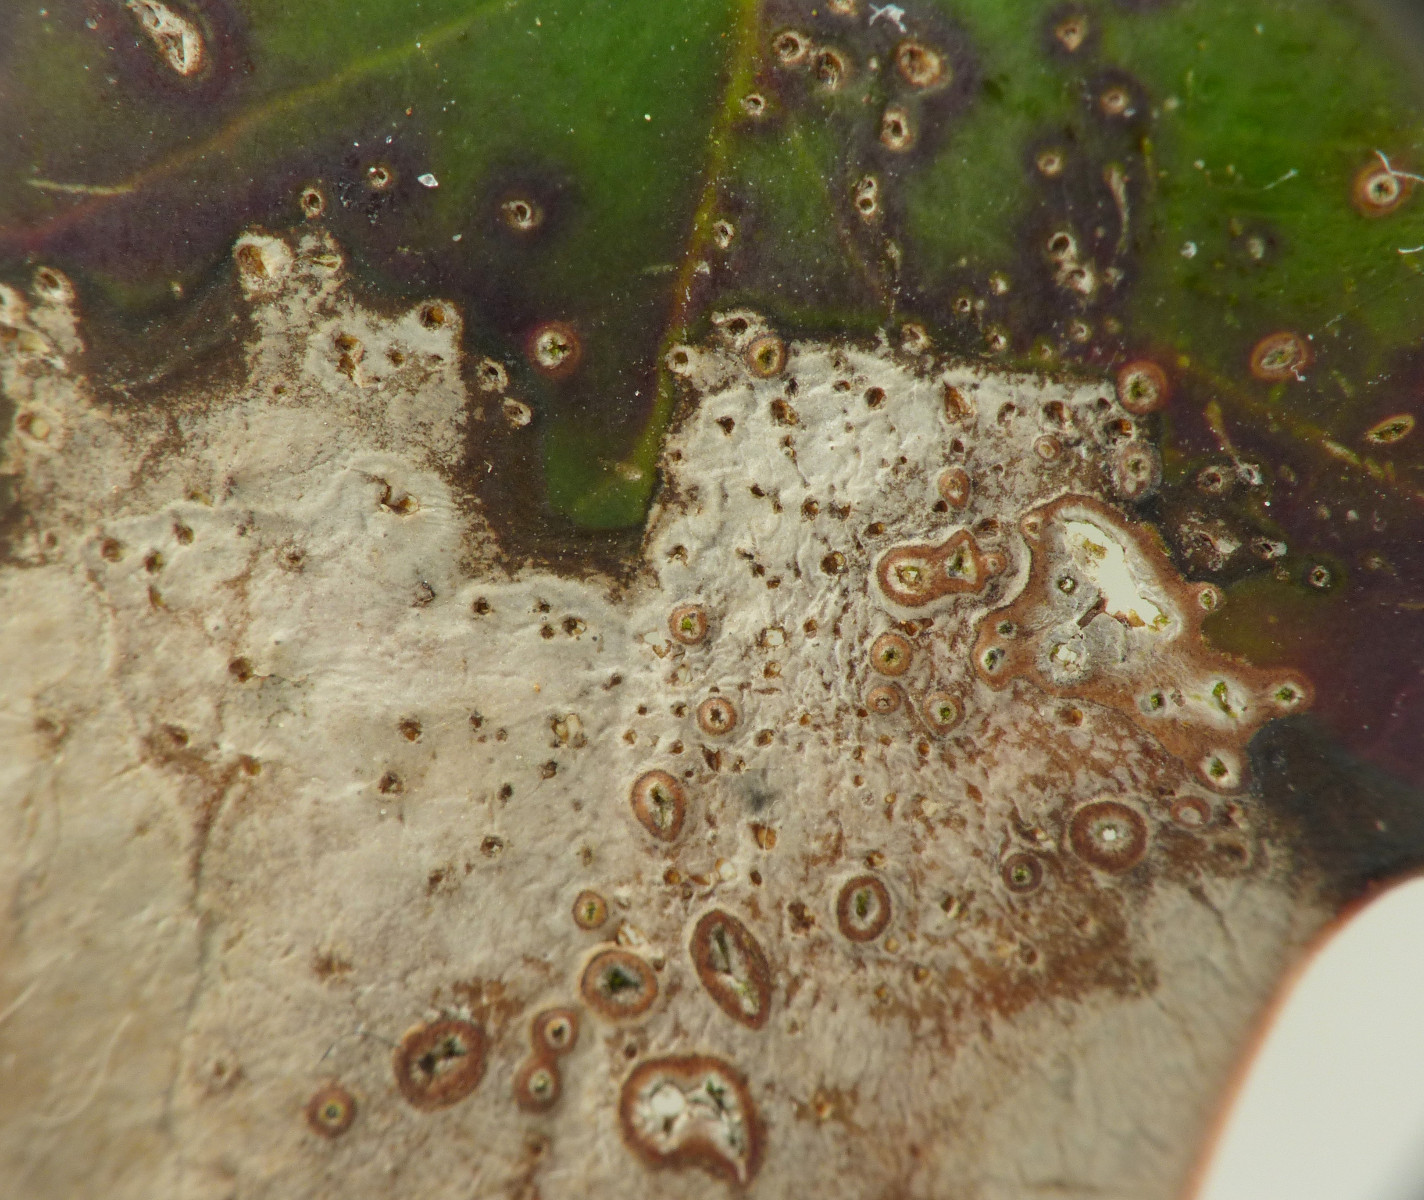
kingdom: Fungi
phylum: Ascomycota
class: Dothideomycetes
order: Pleosporales
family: Sporormiaceae
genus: Sporormiella
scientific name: Sporormiella
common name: knækspore
